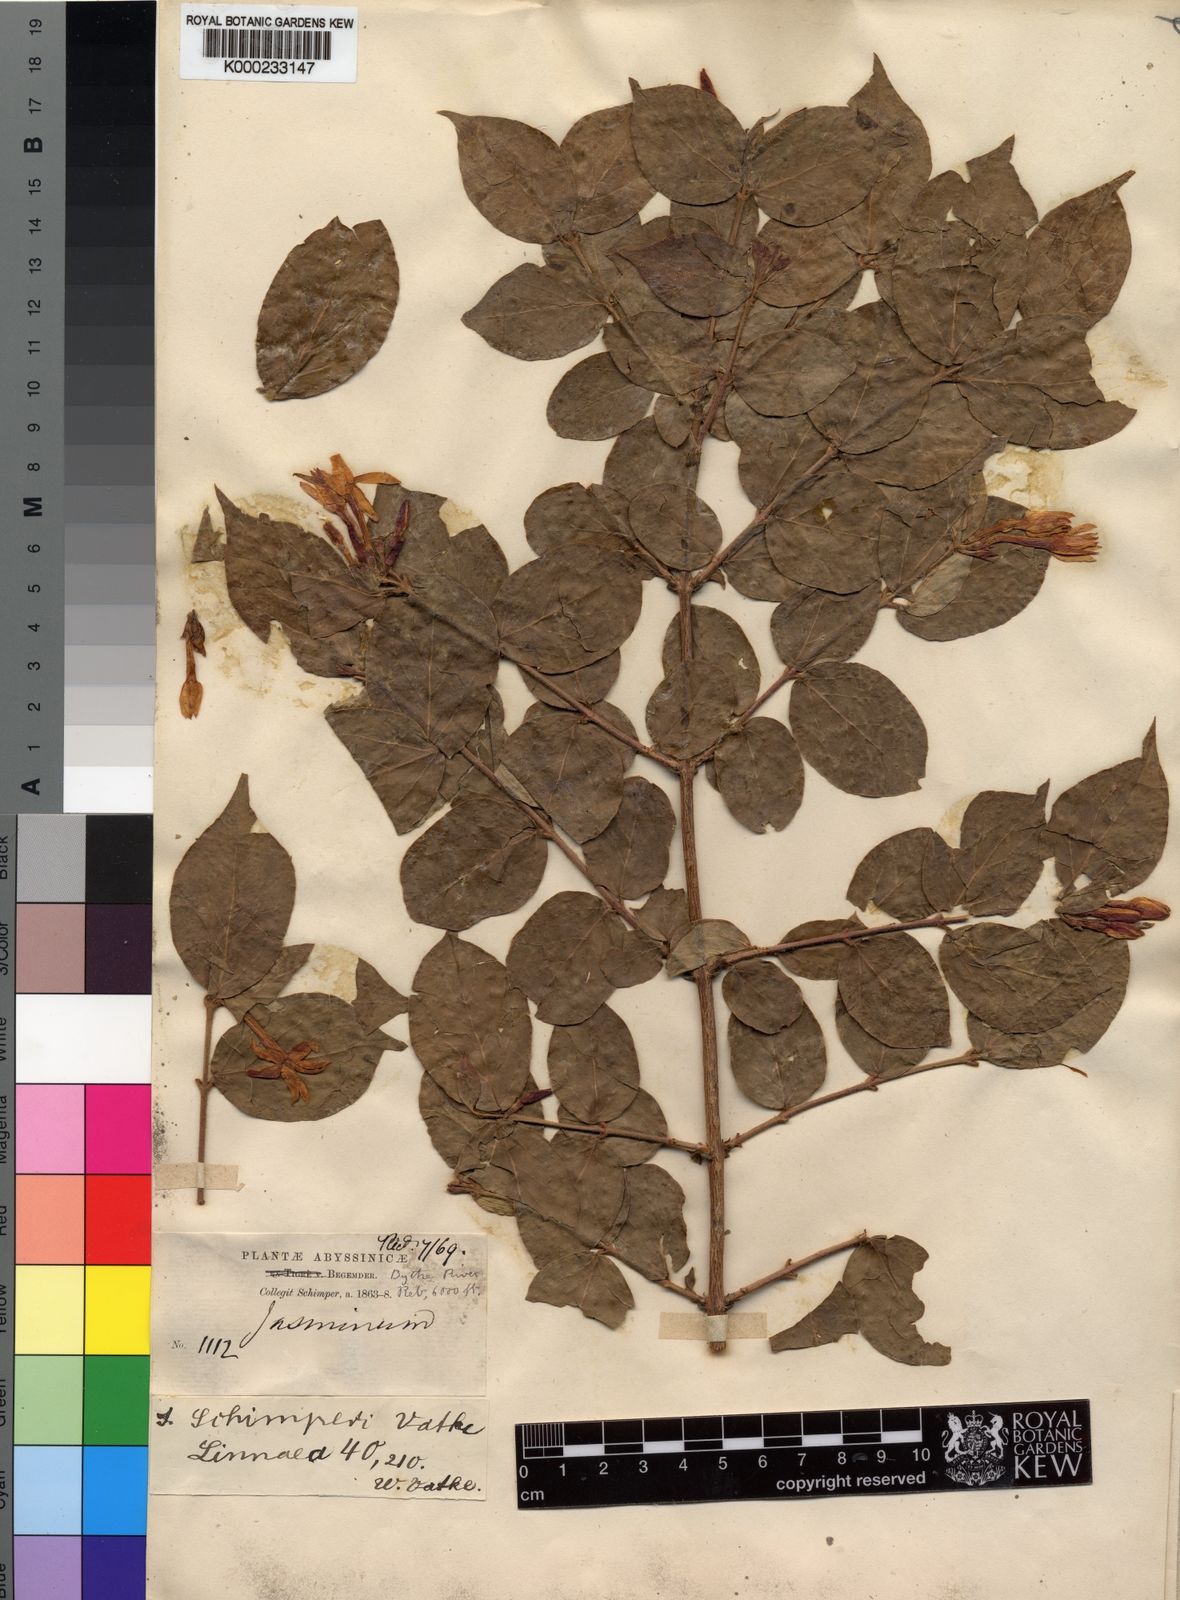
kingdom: Plantae
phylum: Tracheophyta
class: Magnoliopsida
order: Lamiales
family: Oleaceae
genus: Jasminum
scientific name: Jasminum schimperi
